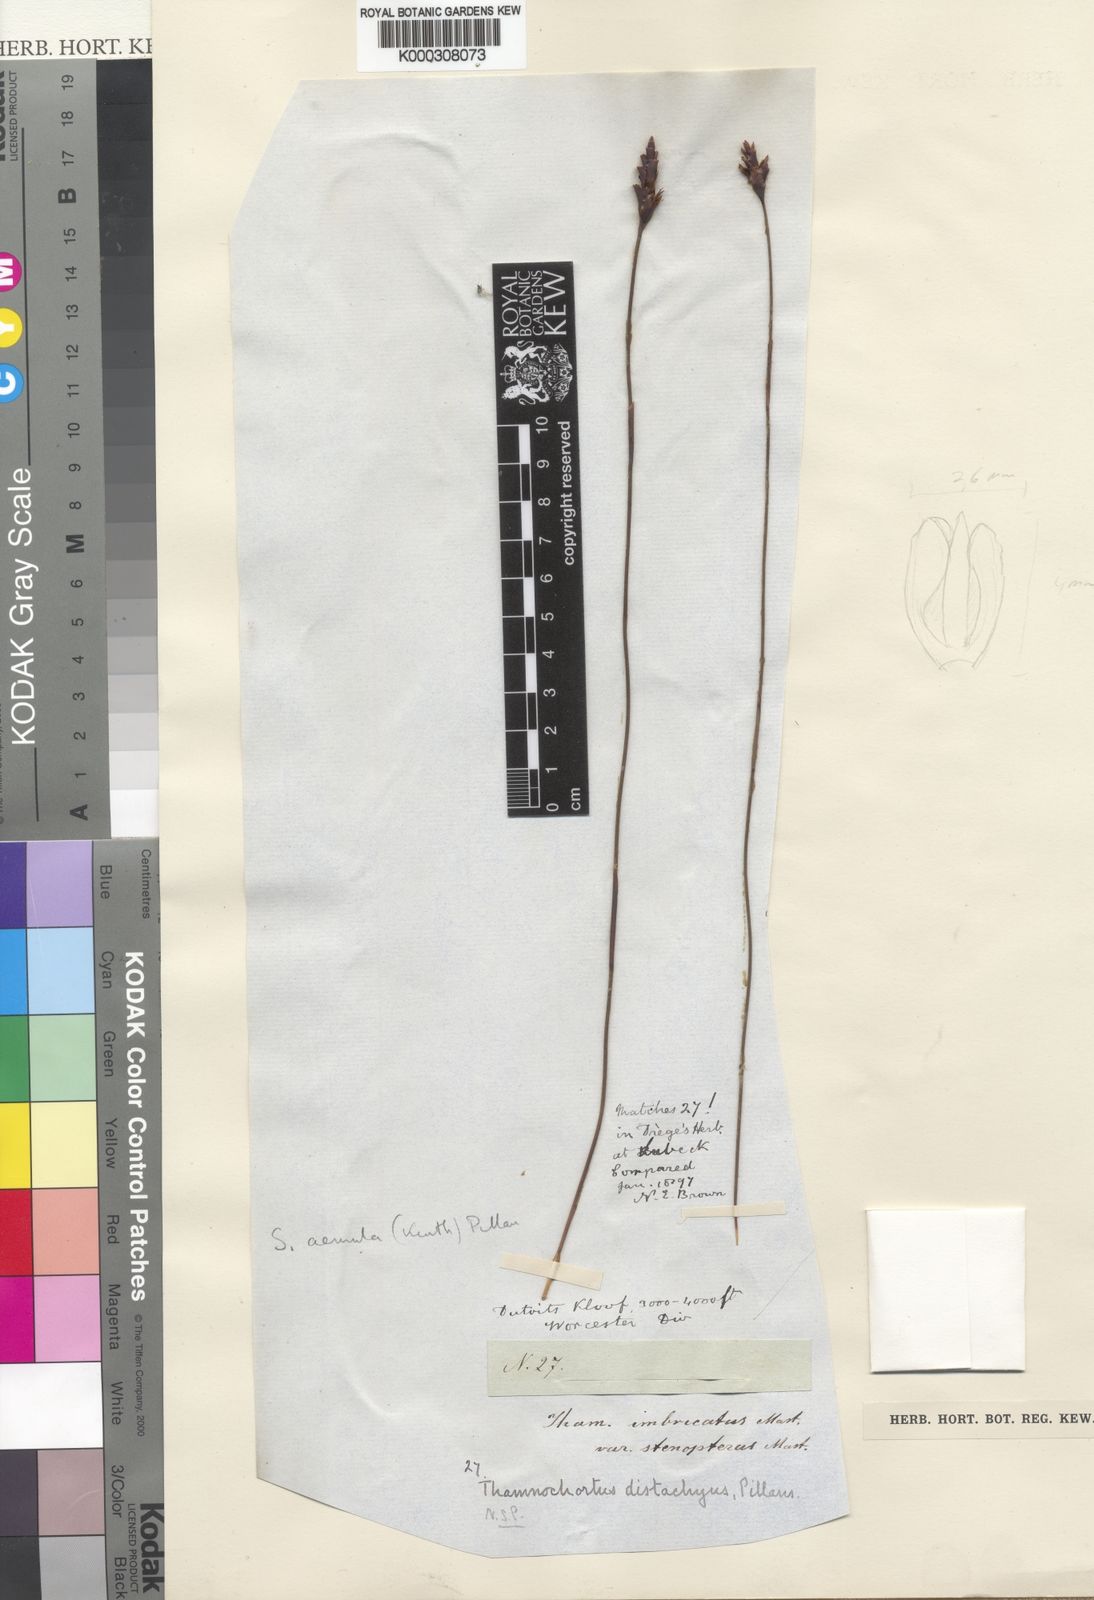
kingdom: Plantae
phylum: Tracheophyta
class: Liliopsida
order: Poales
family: Restionaceae
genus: Staberoha
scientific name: Staberoha aemula
